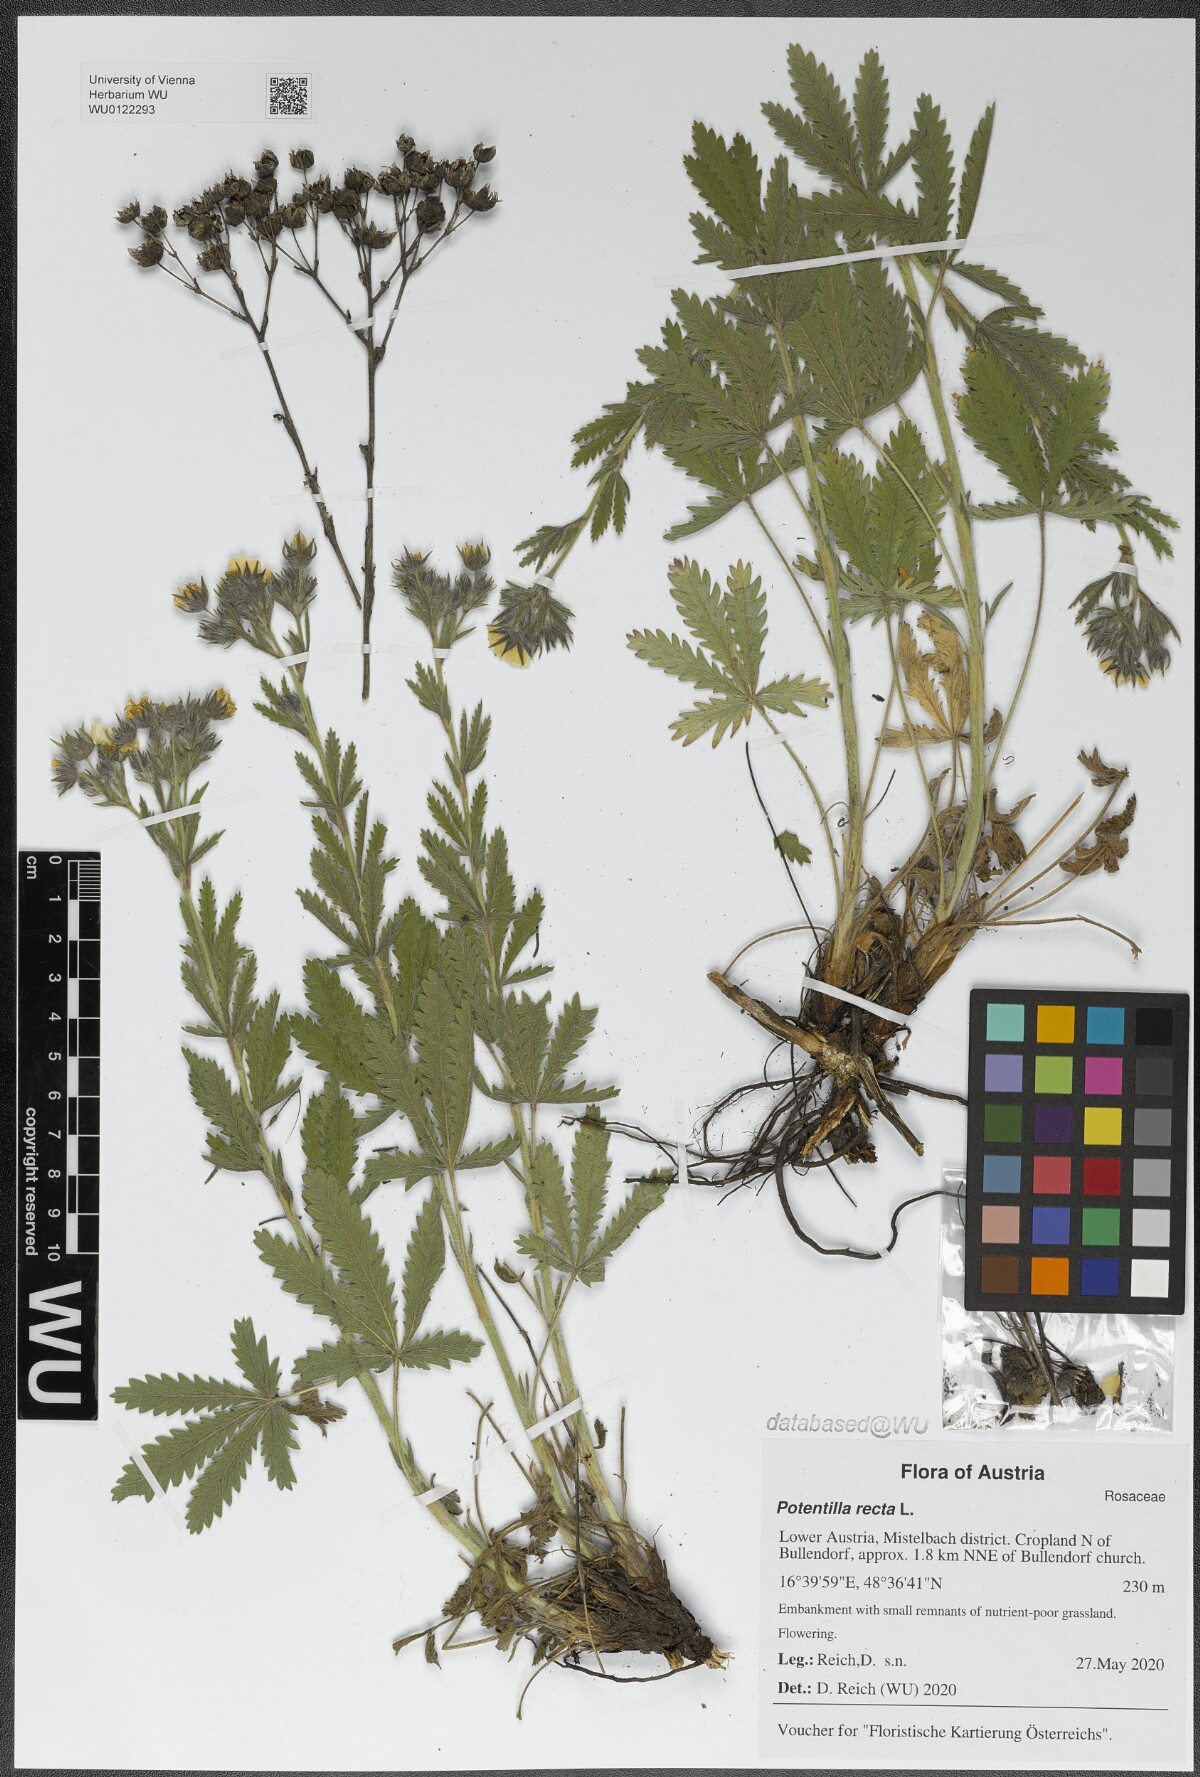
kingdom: Plantae
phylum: Tracheophyta
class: Magnoliopsida
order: Rosales
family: Rosaceae
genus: Potentilla
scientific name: Potentilla recta
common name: Sulphur cinquefoil
